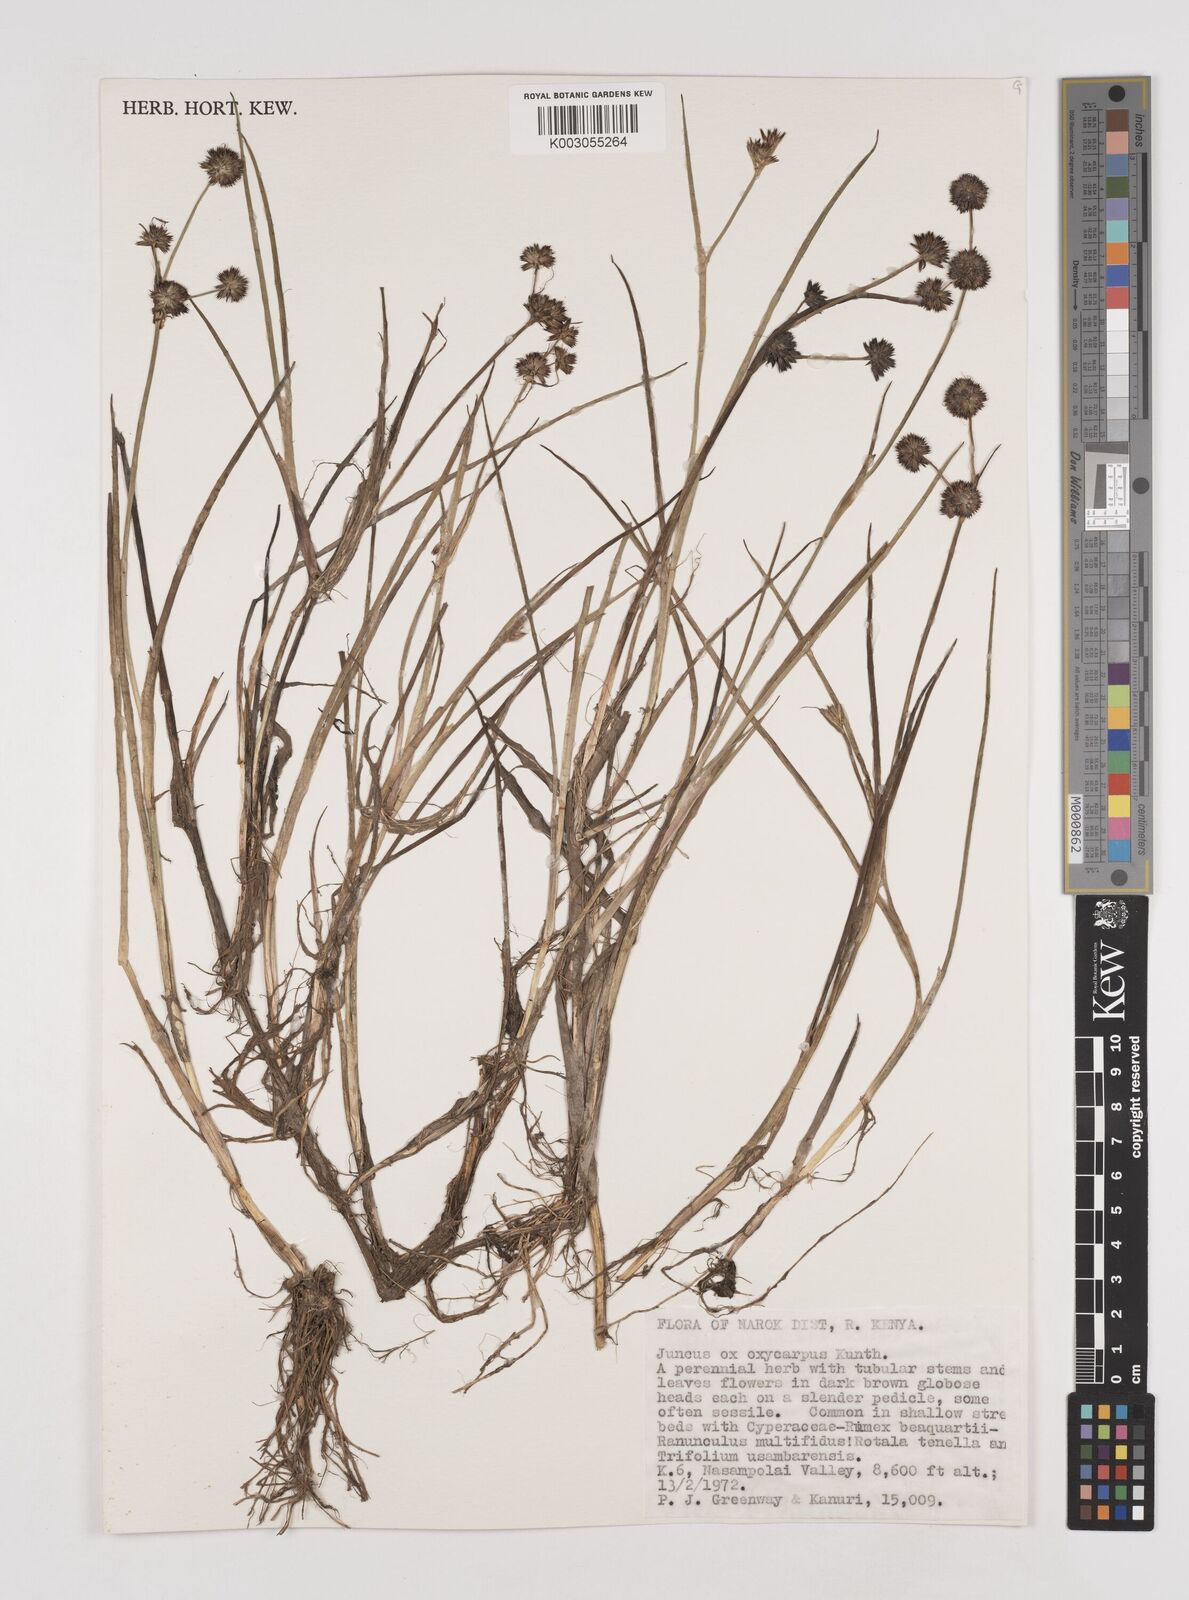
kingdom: Plantae
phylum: Tracheophyta
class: Liliopsida
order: Poales
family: Juncaceae
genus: Juncus
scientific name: Juncus oxycarpus
